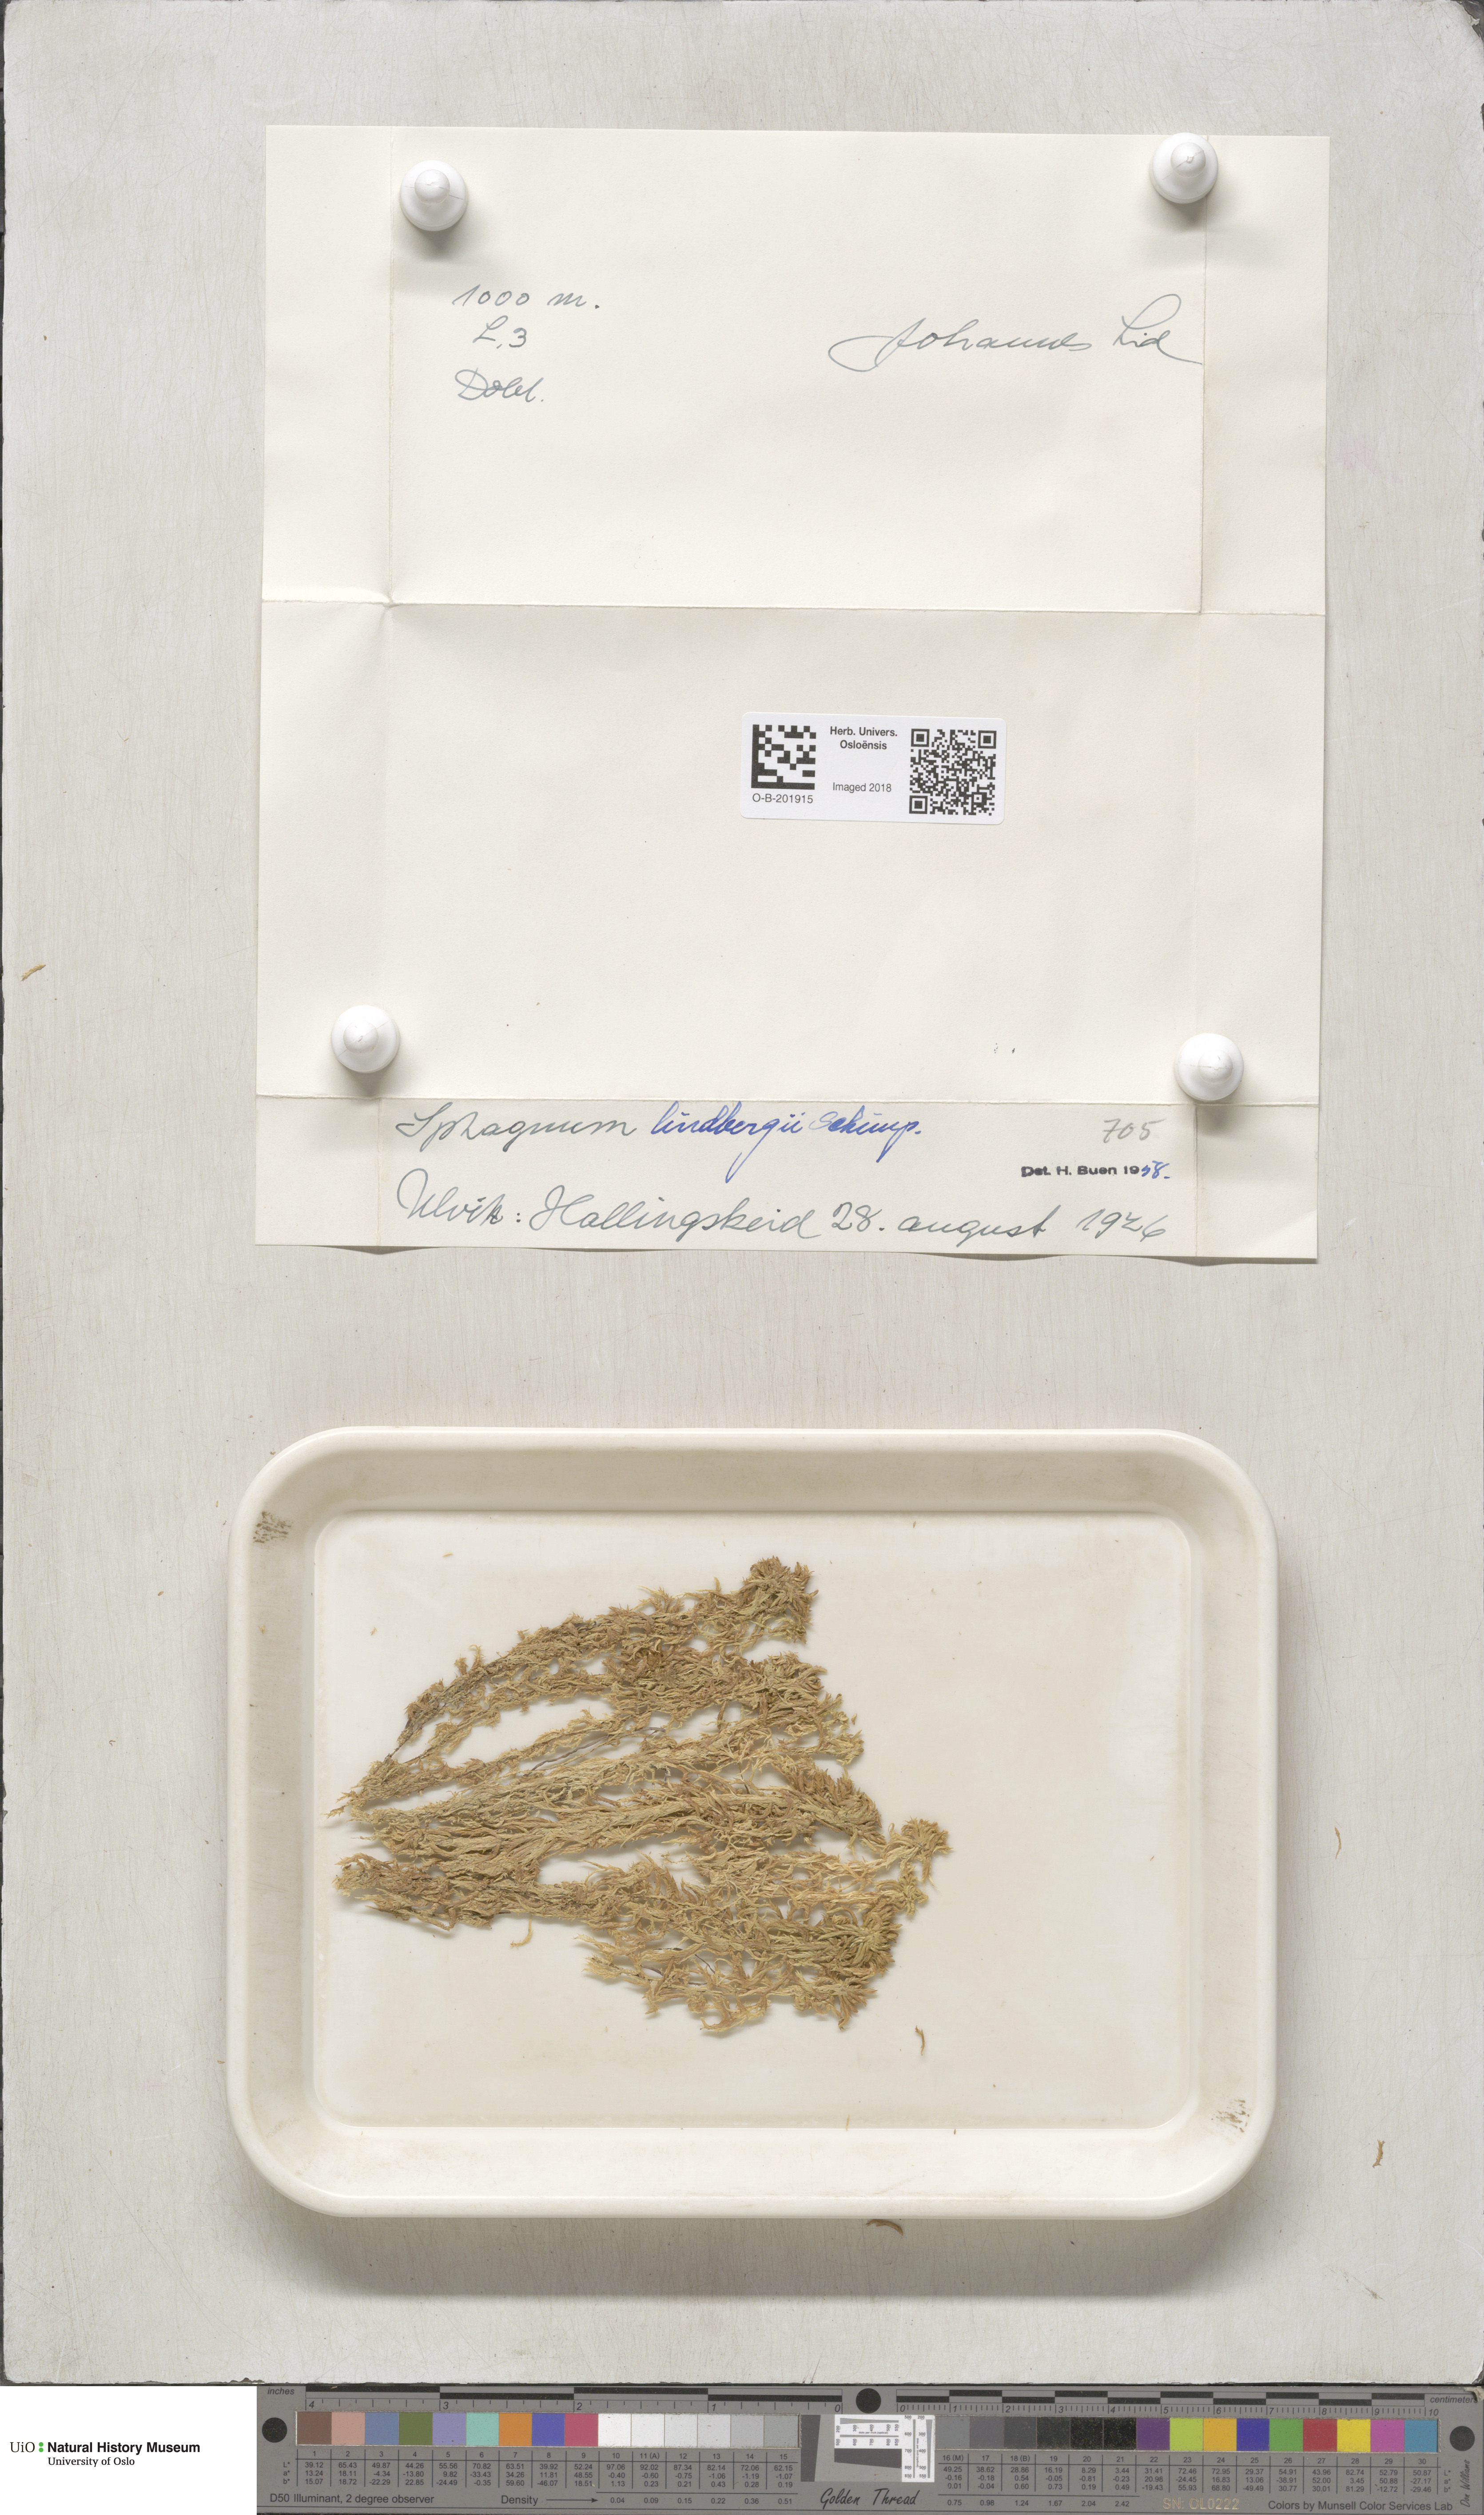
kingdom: Plantae
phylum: Bryophyta
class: Sphagnopsida
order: Sphagnales
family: Sphagnaceae
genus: Sphagnum
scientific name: Sphagnum lindbergii
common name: Lindberg's peat moss
